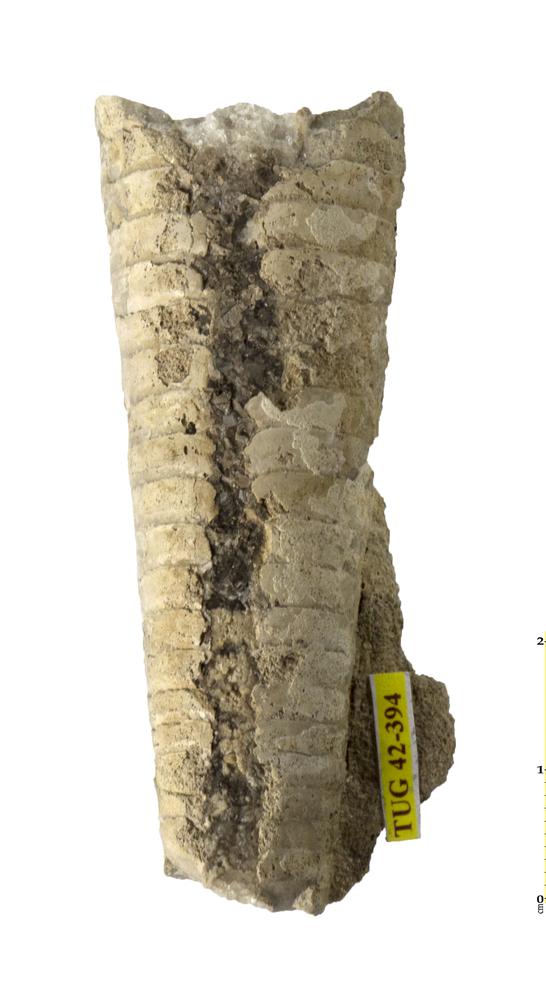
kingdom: Animalia
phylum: Mollusca
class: Cephalopoda
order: Orthocerida
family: Orthoceratidae
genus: Orthoceras
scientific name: Orthoceras
